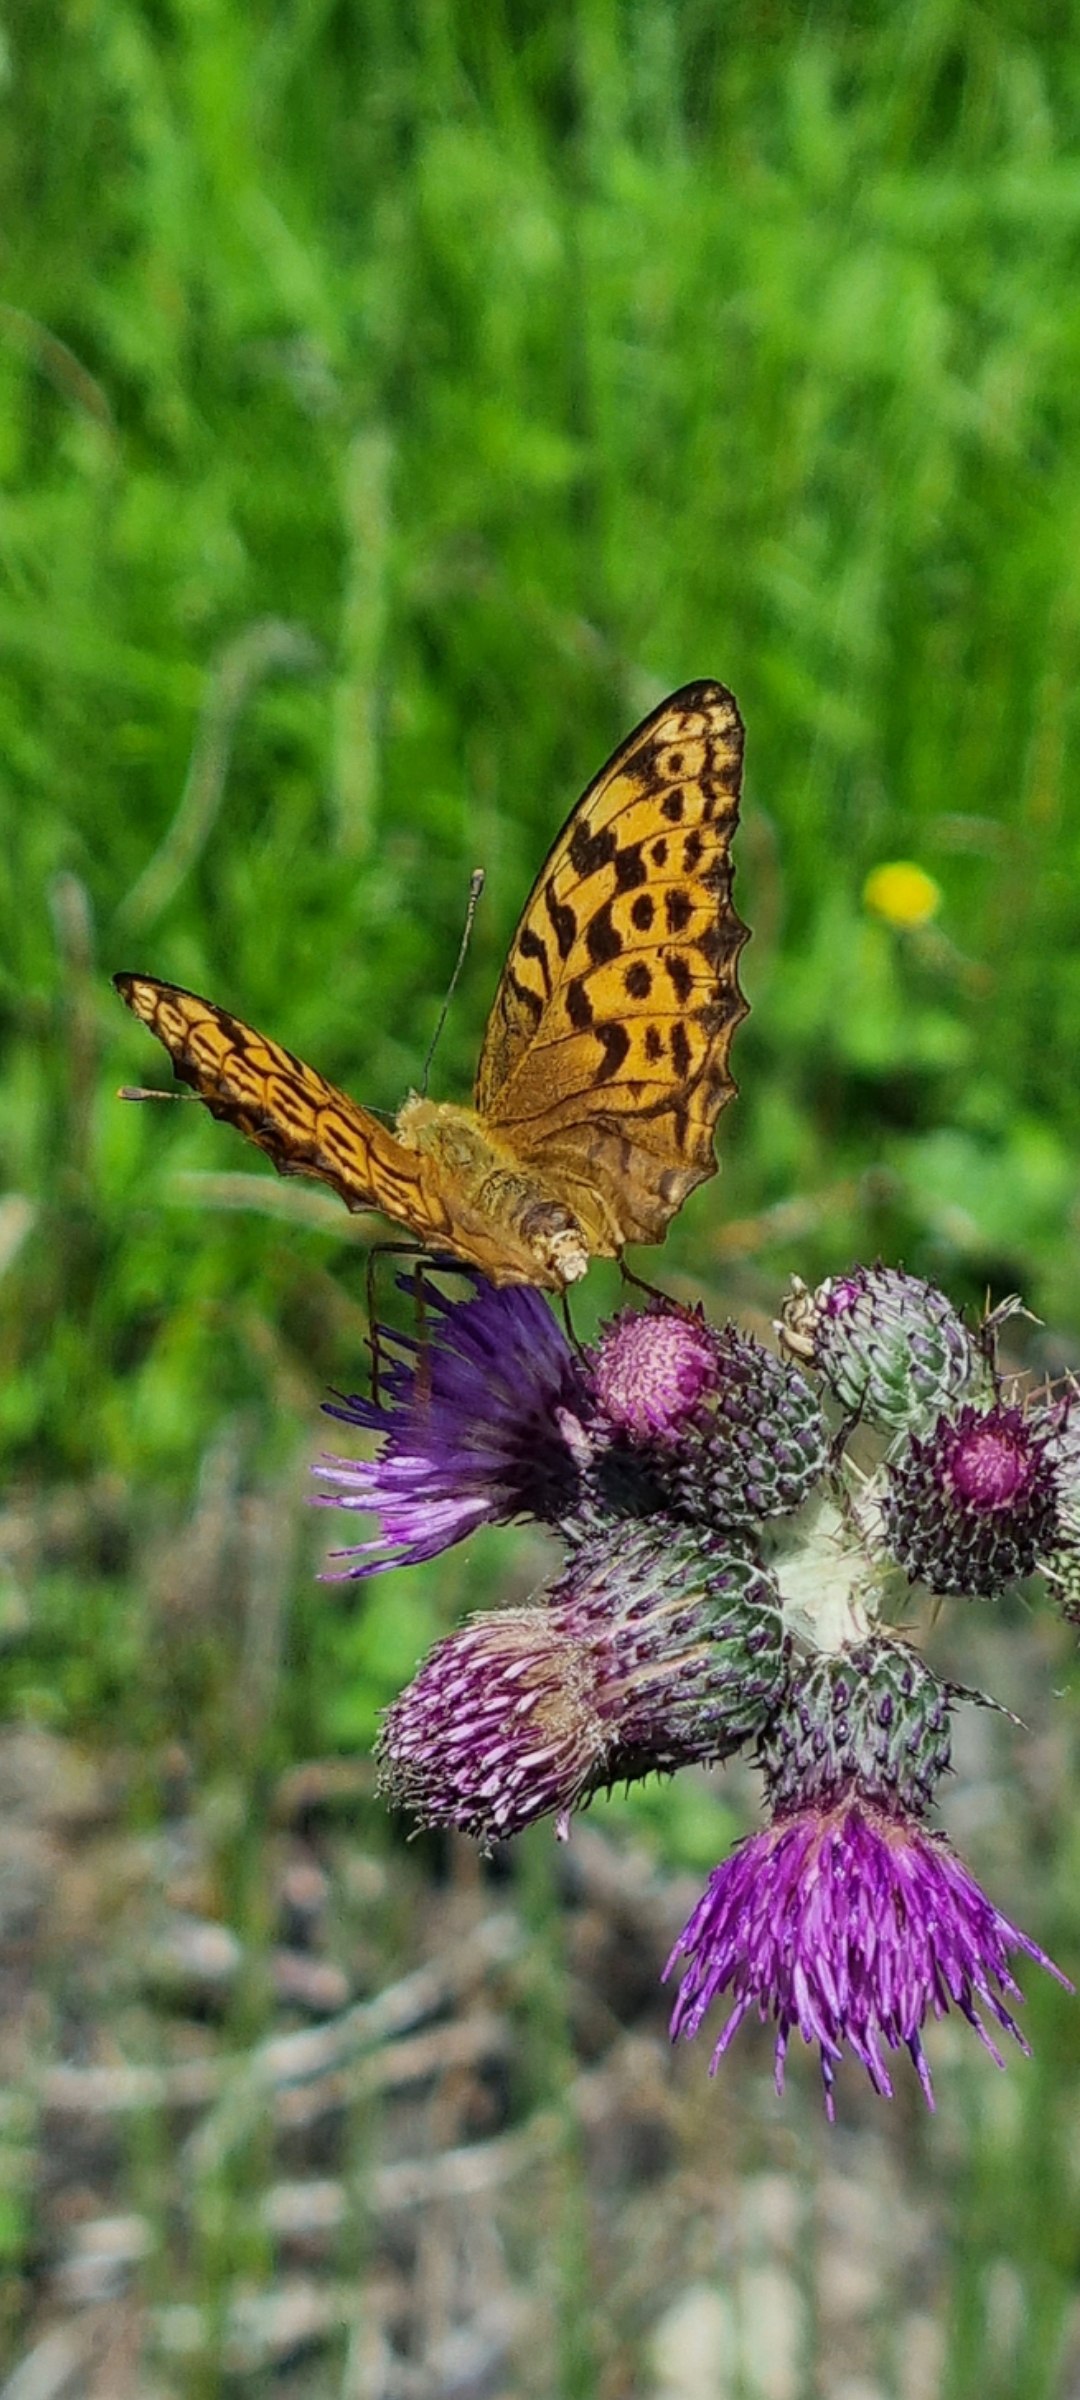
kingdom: Animalia
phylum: Arthropoda
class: Insecta
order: Lepidoptera
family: Nymphalidae
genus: Argynnis
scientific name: Argynnis paphia
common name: Kejserkåbe
